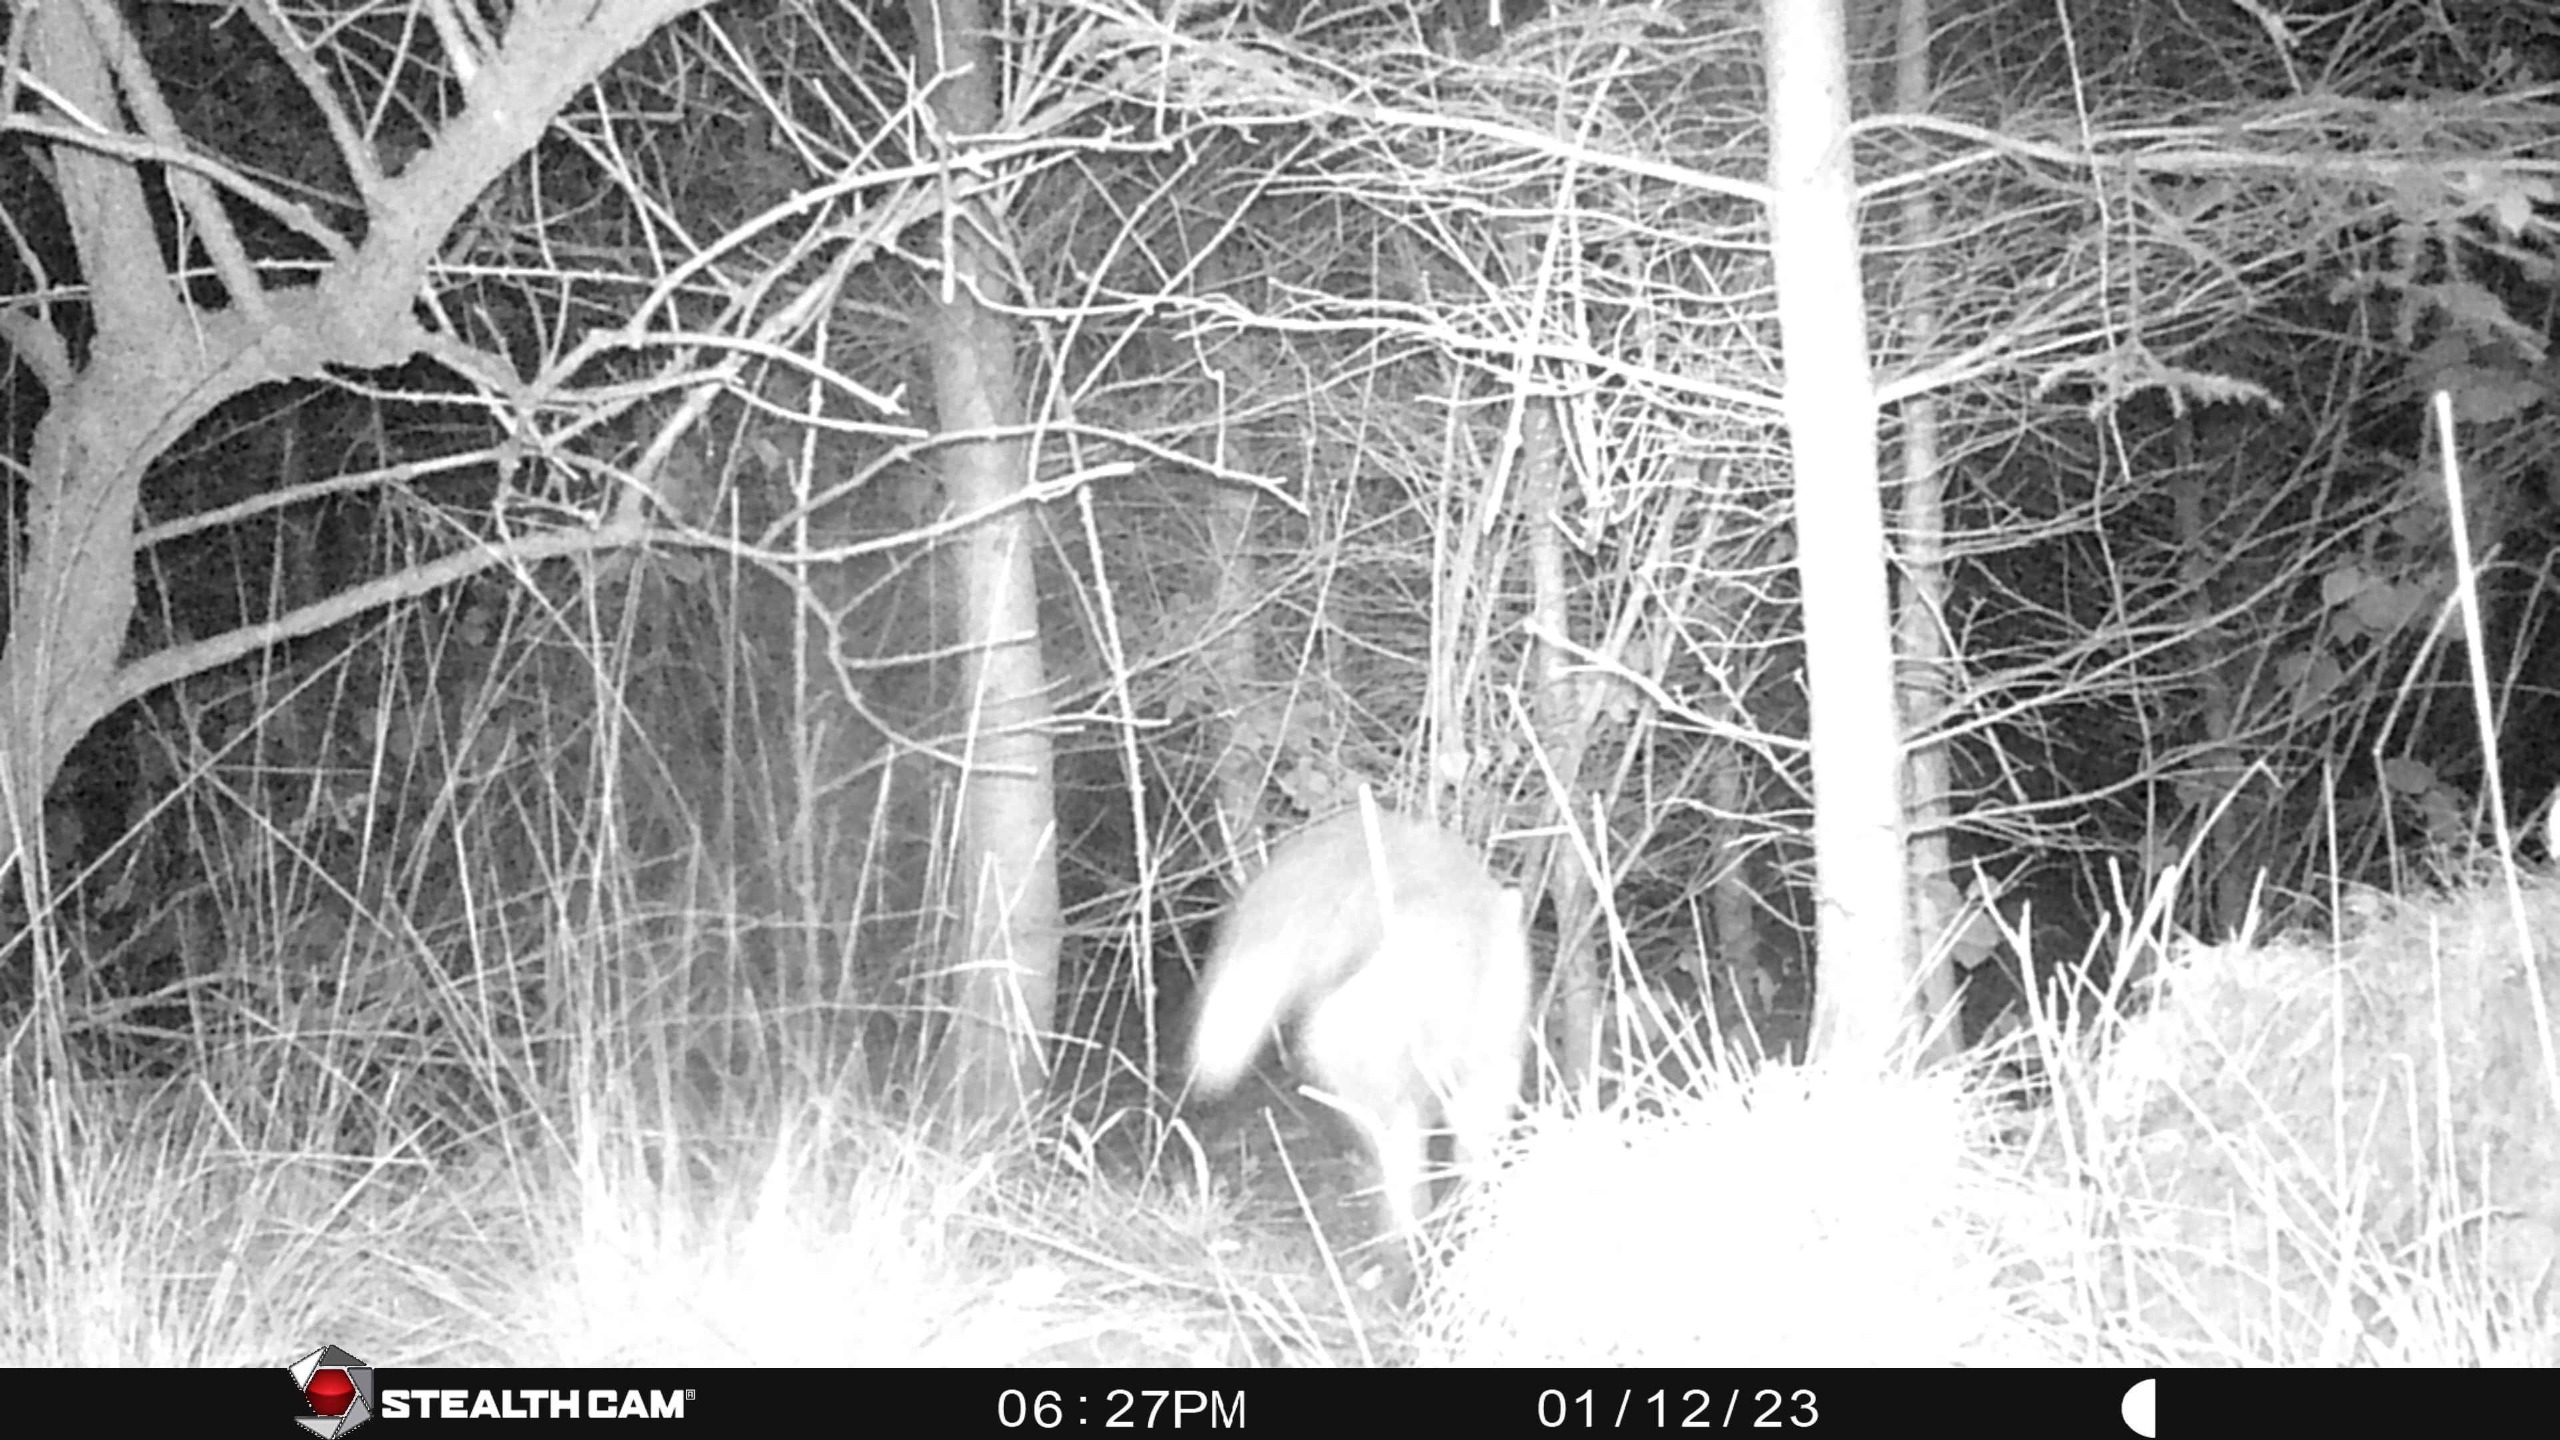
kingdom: Animalia
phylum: Chordata
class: Mammalia
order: Carnivora
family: Canidae
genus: Vulpes
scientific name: Vulpes vulpes
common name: Ræv
